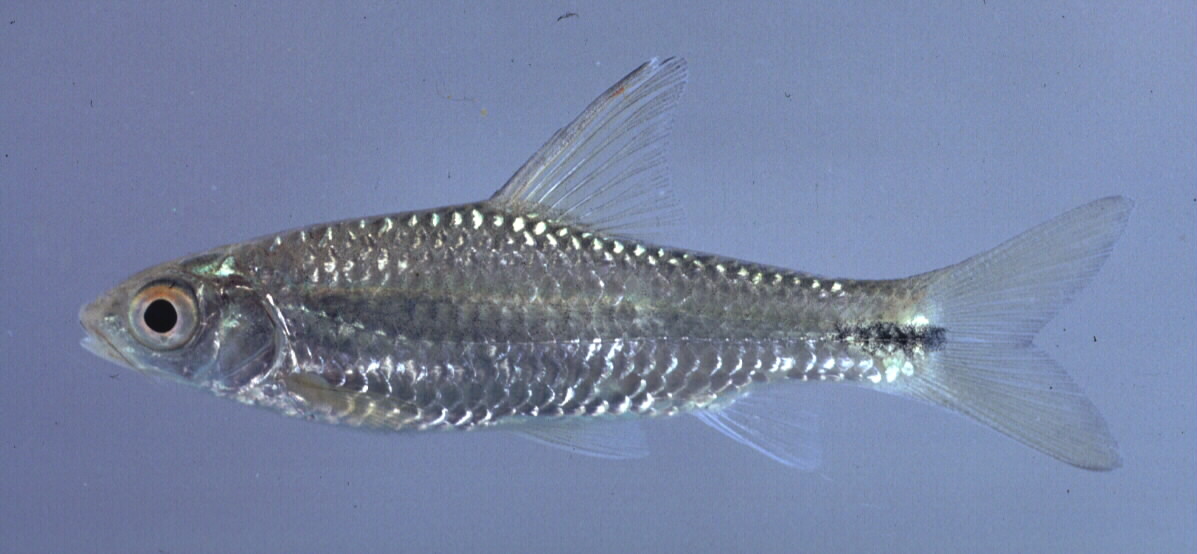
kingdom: Animalia
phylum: Chordata
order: Cypriniformes
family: Cyprinidae
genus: Enteromius
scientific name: Enteromius poechii
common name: Dashtail barb
